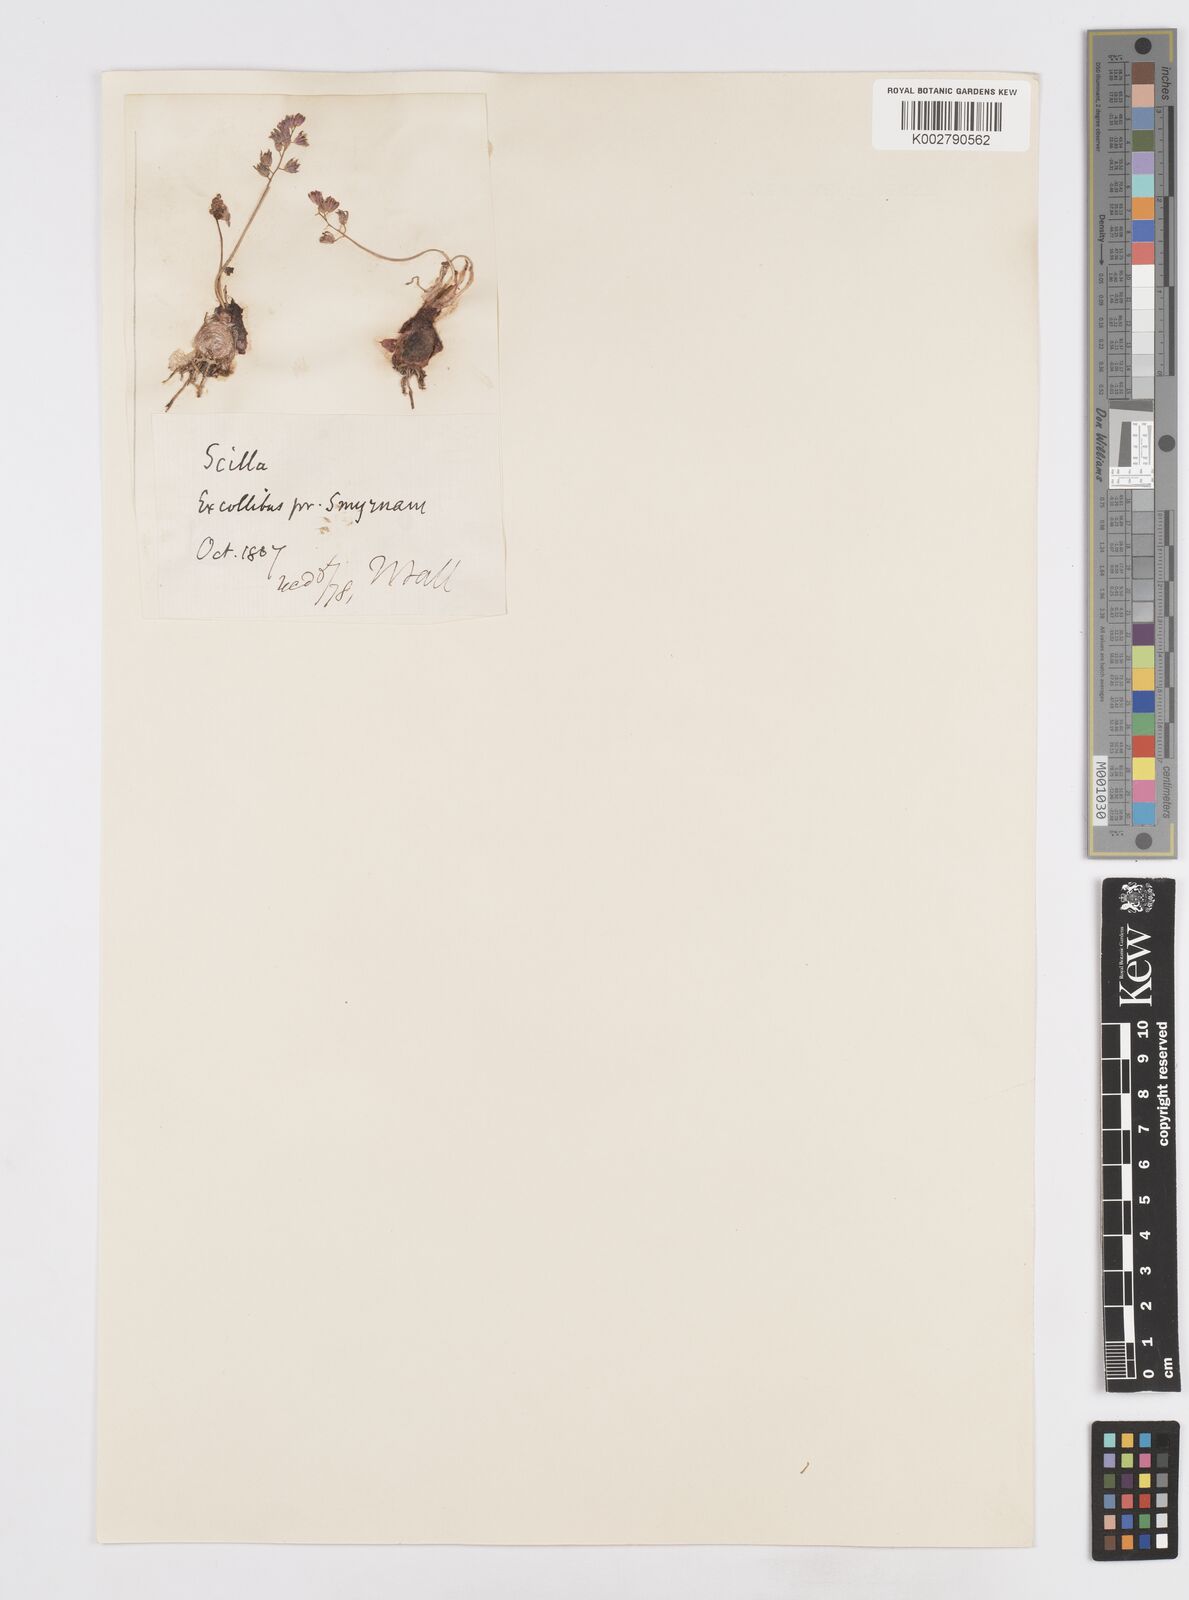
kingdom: Plantae
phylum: Tracheophyta
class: Liliopsida
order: Asparagales
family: Asparagaceae
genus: Prospero
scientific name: Prospero autumnale
